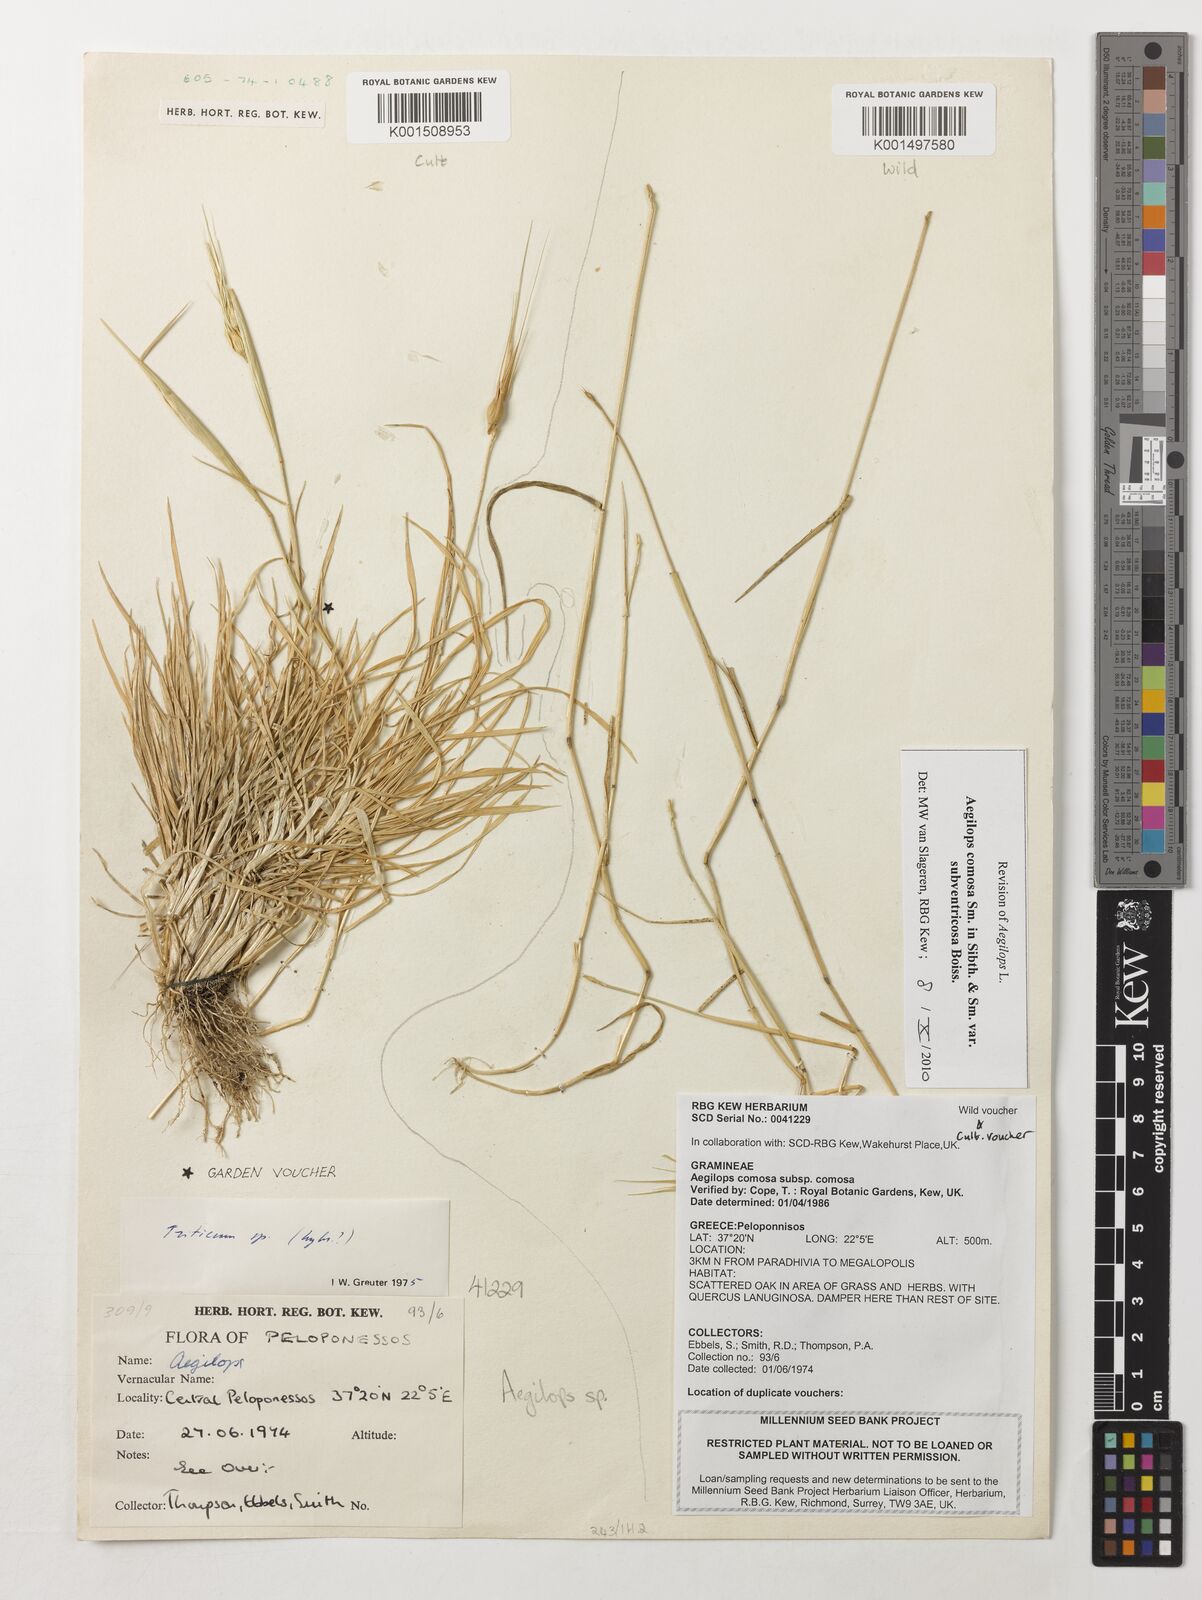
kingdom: Plantae
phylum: Tracheophyta
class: Liliopsida
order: Poales
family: Poaceae
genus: Aegilops
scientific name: Aegilops comosa
